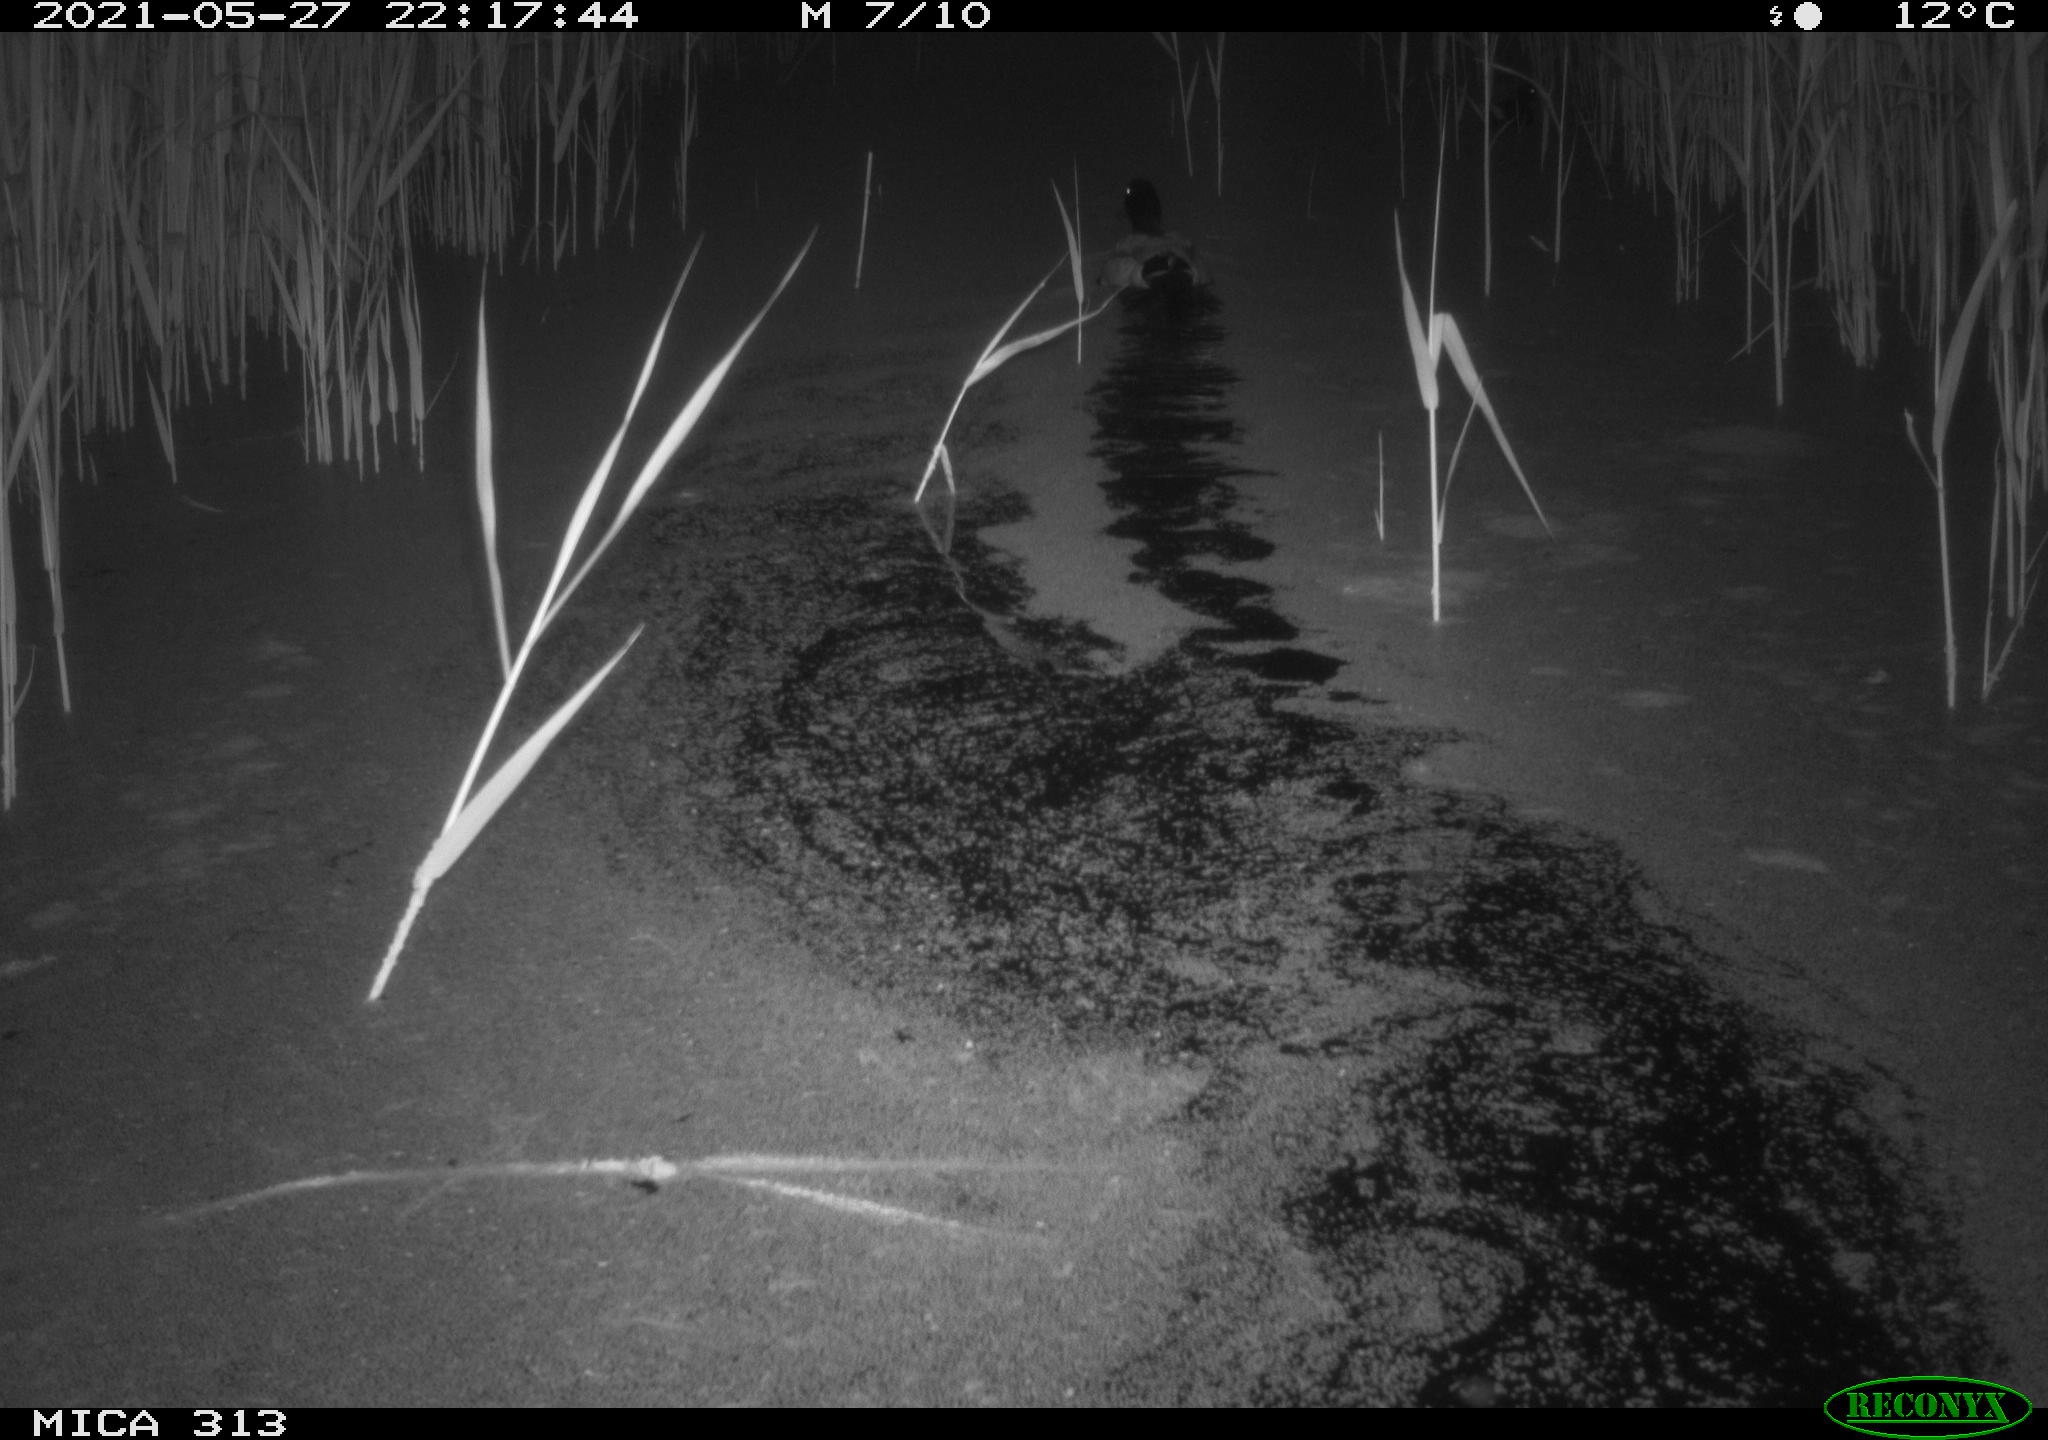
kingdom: Animalia
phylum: Chordata
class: Aves
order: Anseriformes
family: Anatidae
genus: Anas
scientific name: Anas platyrhynchos
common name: Mallard
